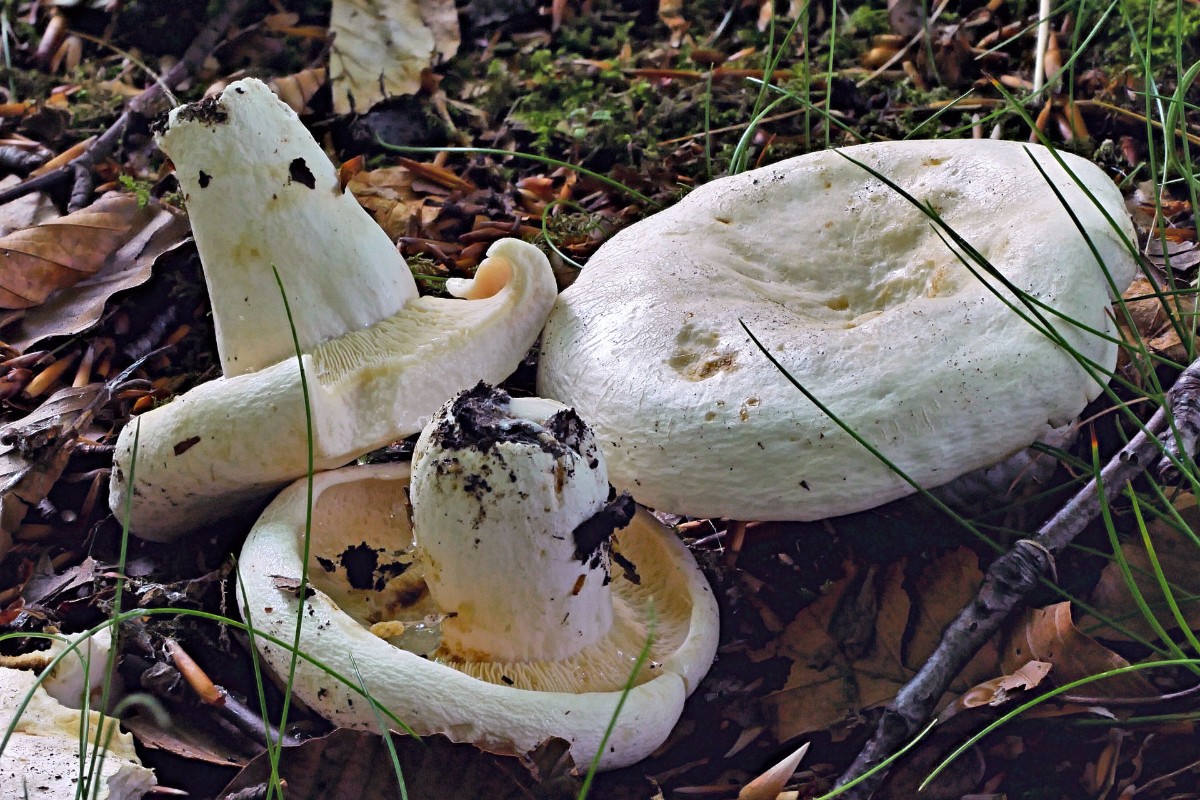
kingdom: Fungi
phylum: Basidiomycota
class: Agaricomycetes
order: Russulales
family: Russulaceae
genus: Lactifluus
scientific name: Lactifluus piperatus
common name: peber-mælkehat
